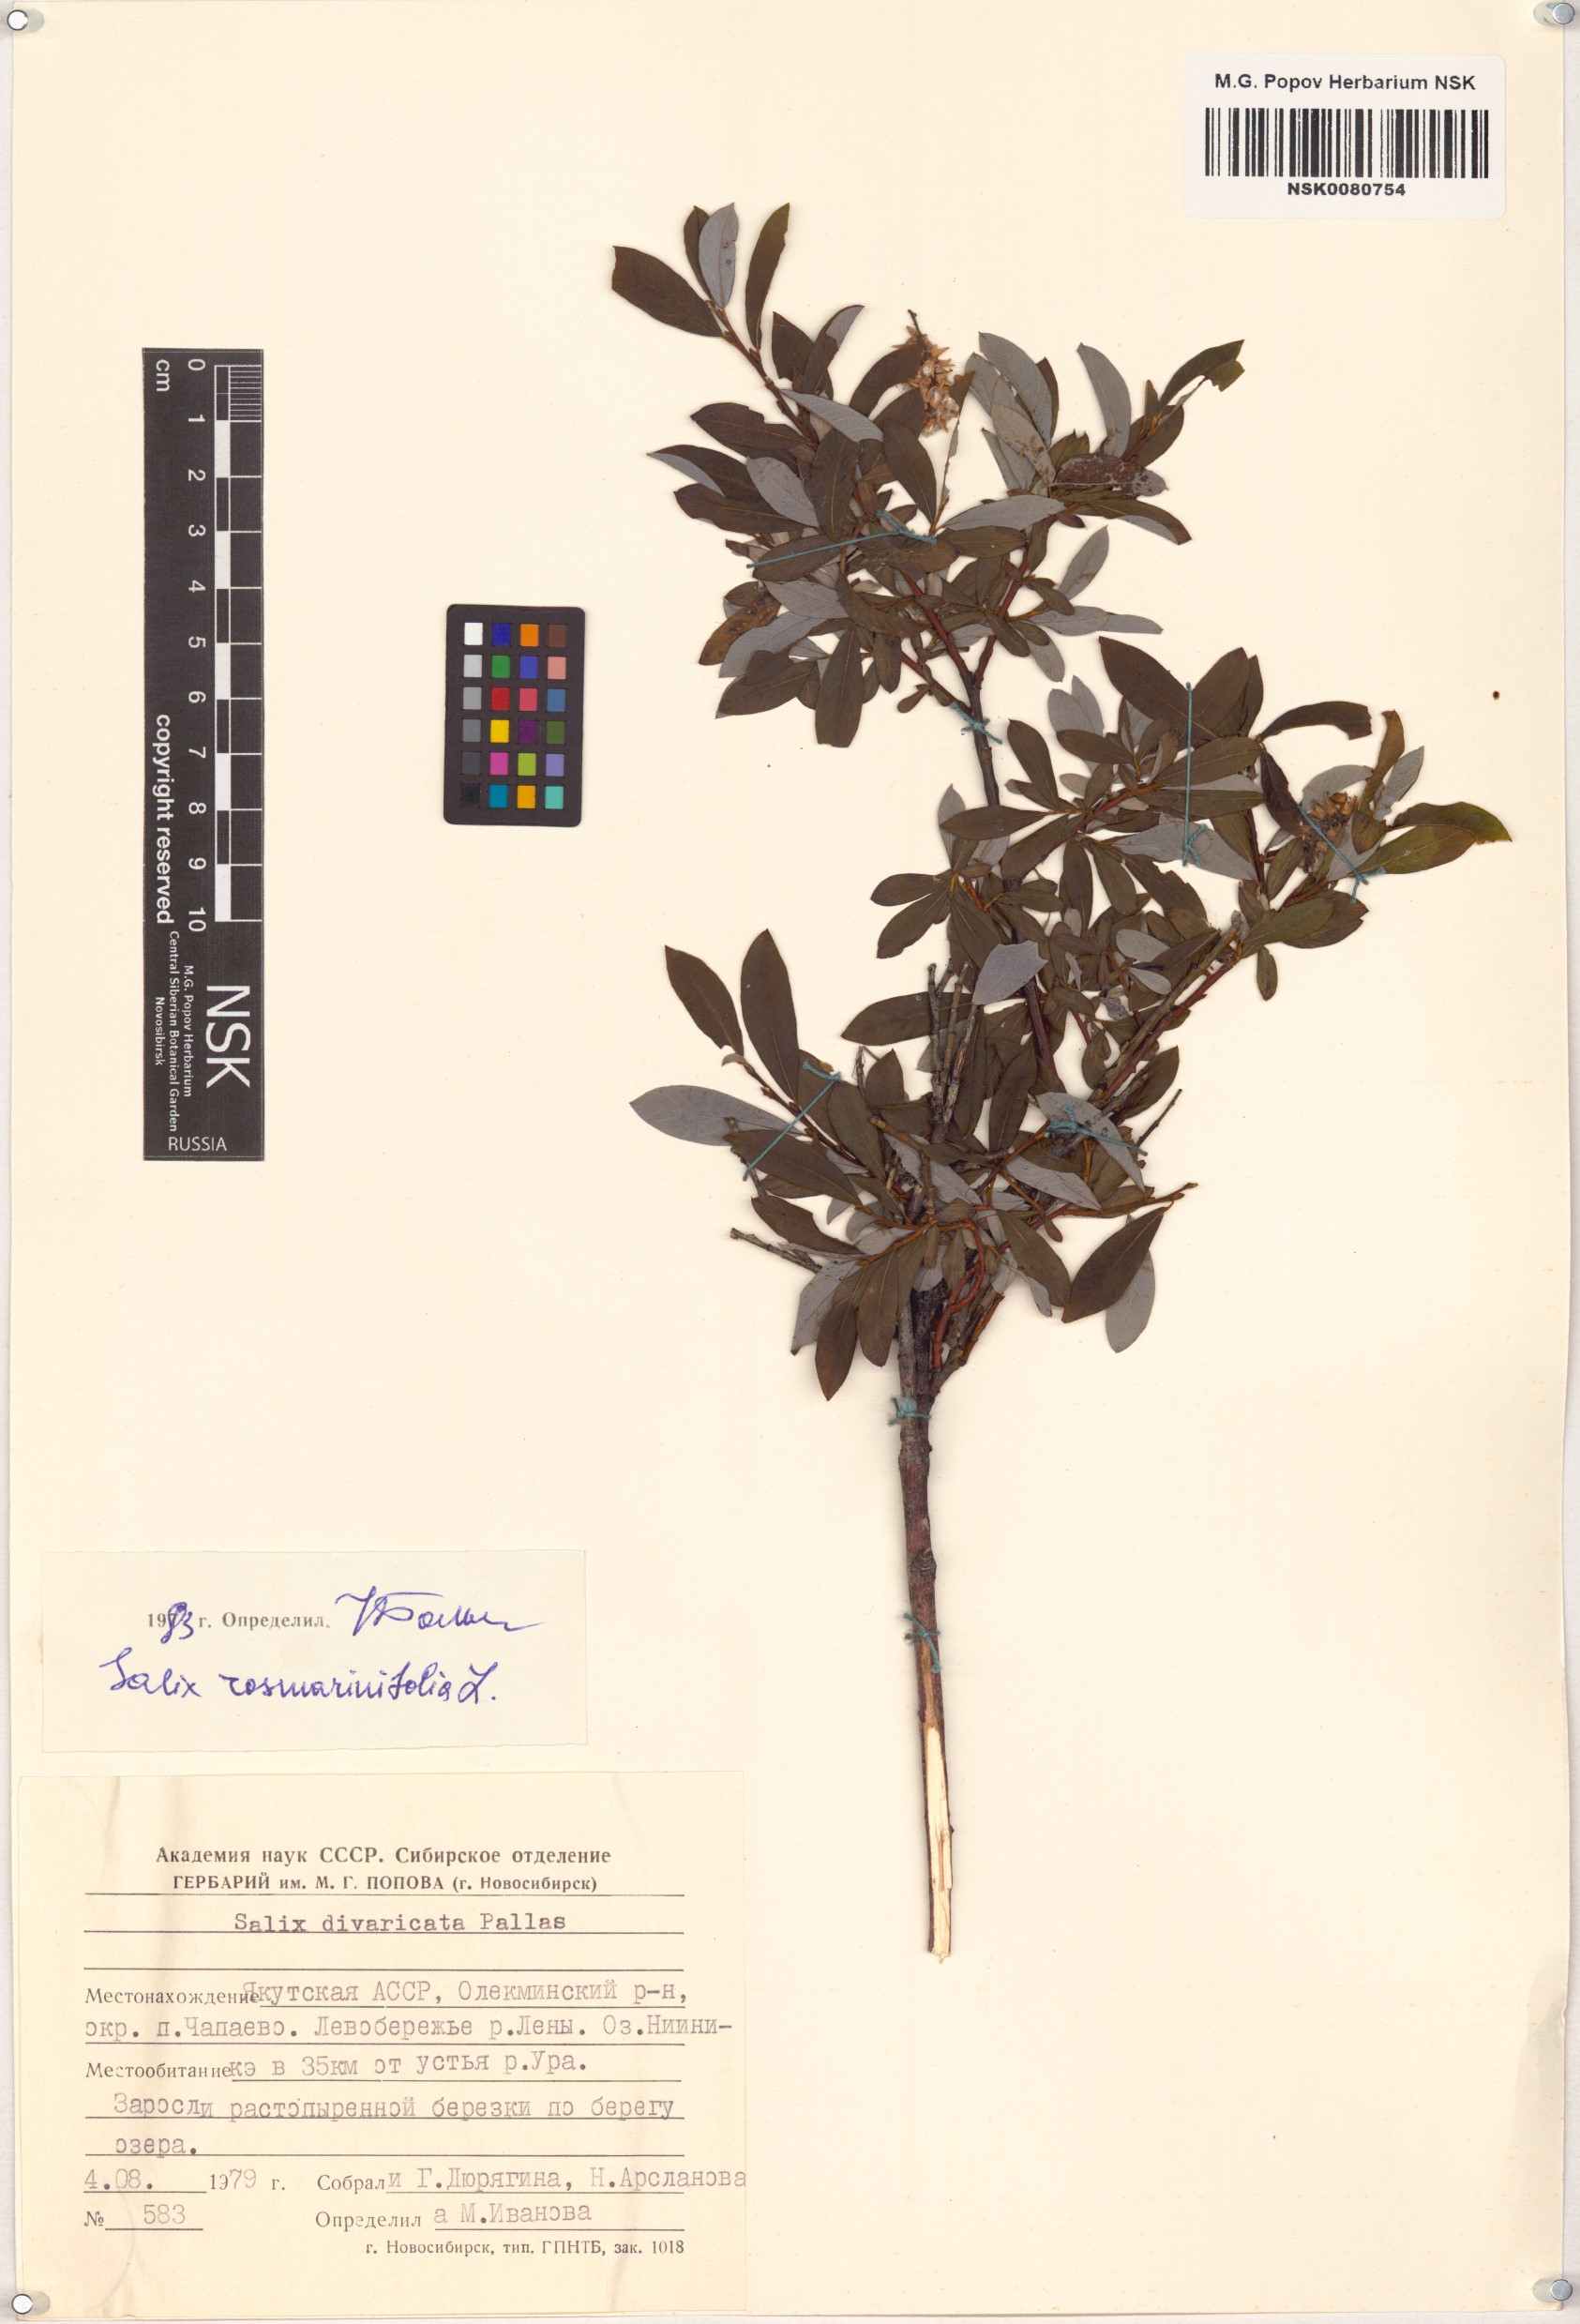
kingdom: Plantae
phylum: Tracheophyta
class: Magnoliopsida
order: Malpighiales
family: Salicaceae
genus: Salix
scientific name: Salix rosmarinifolia
